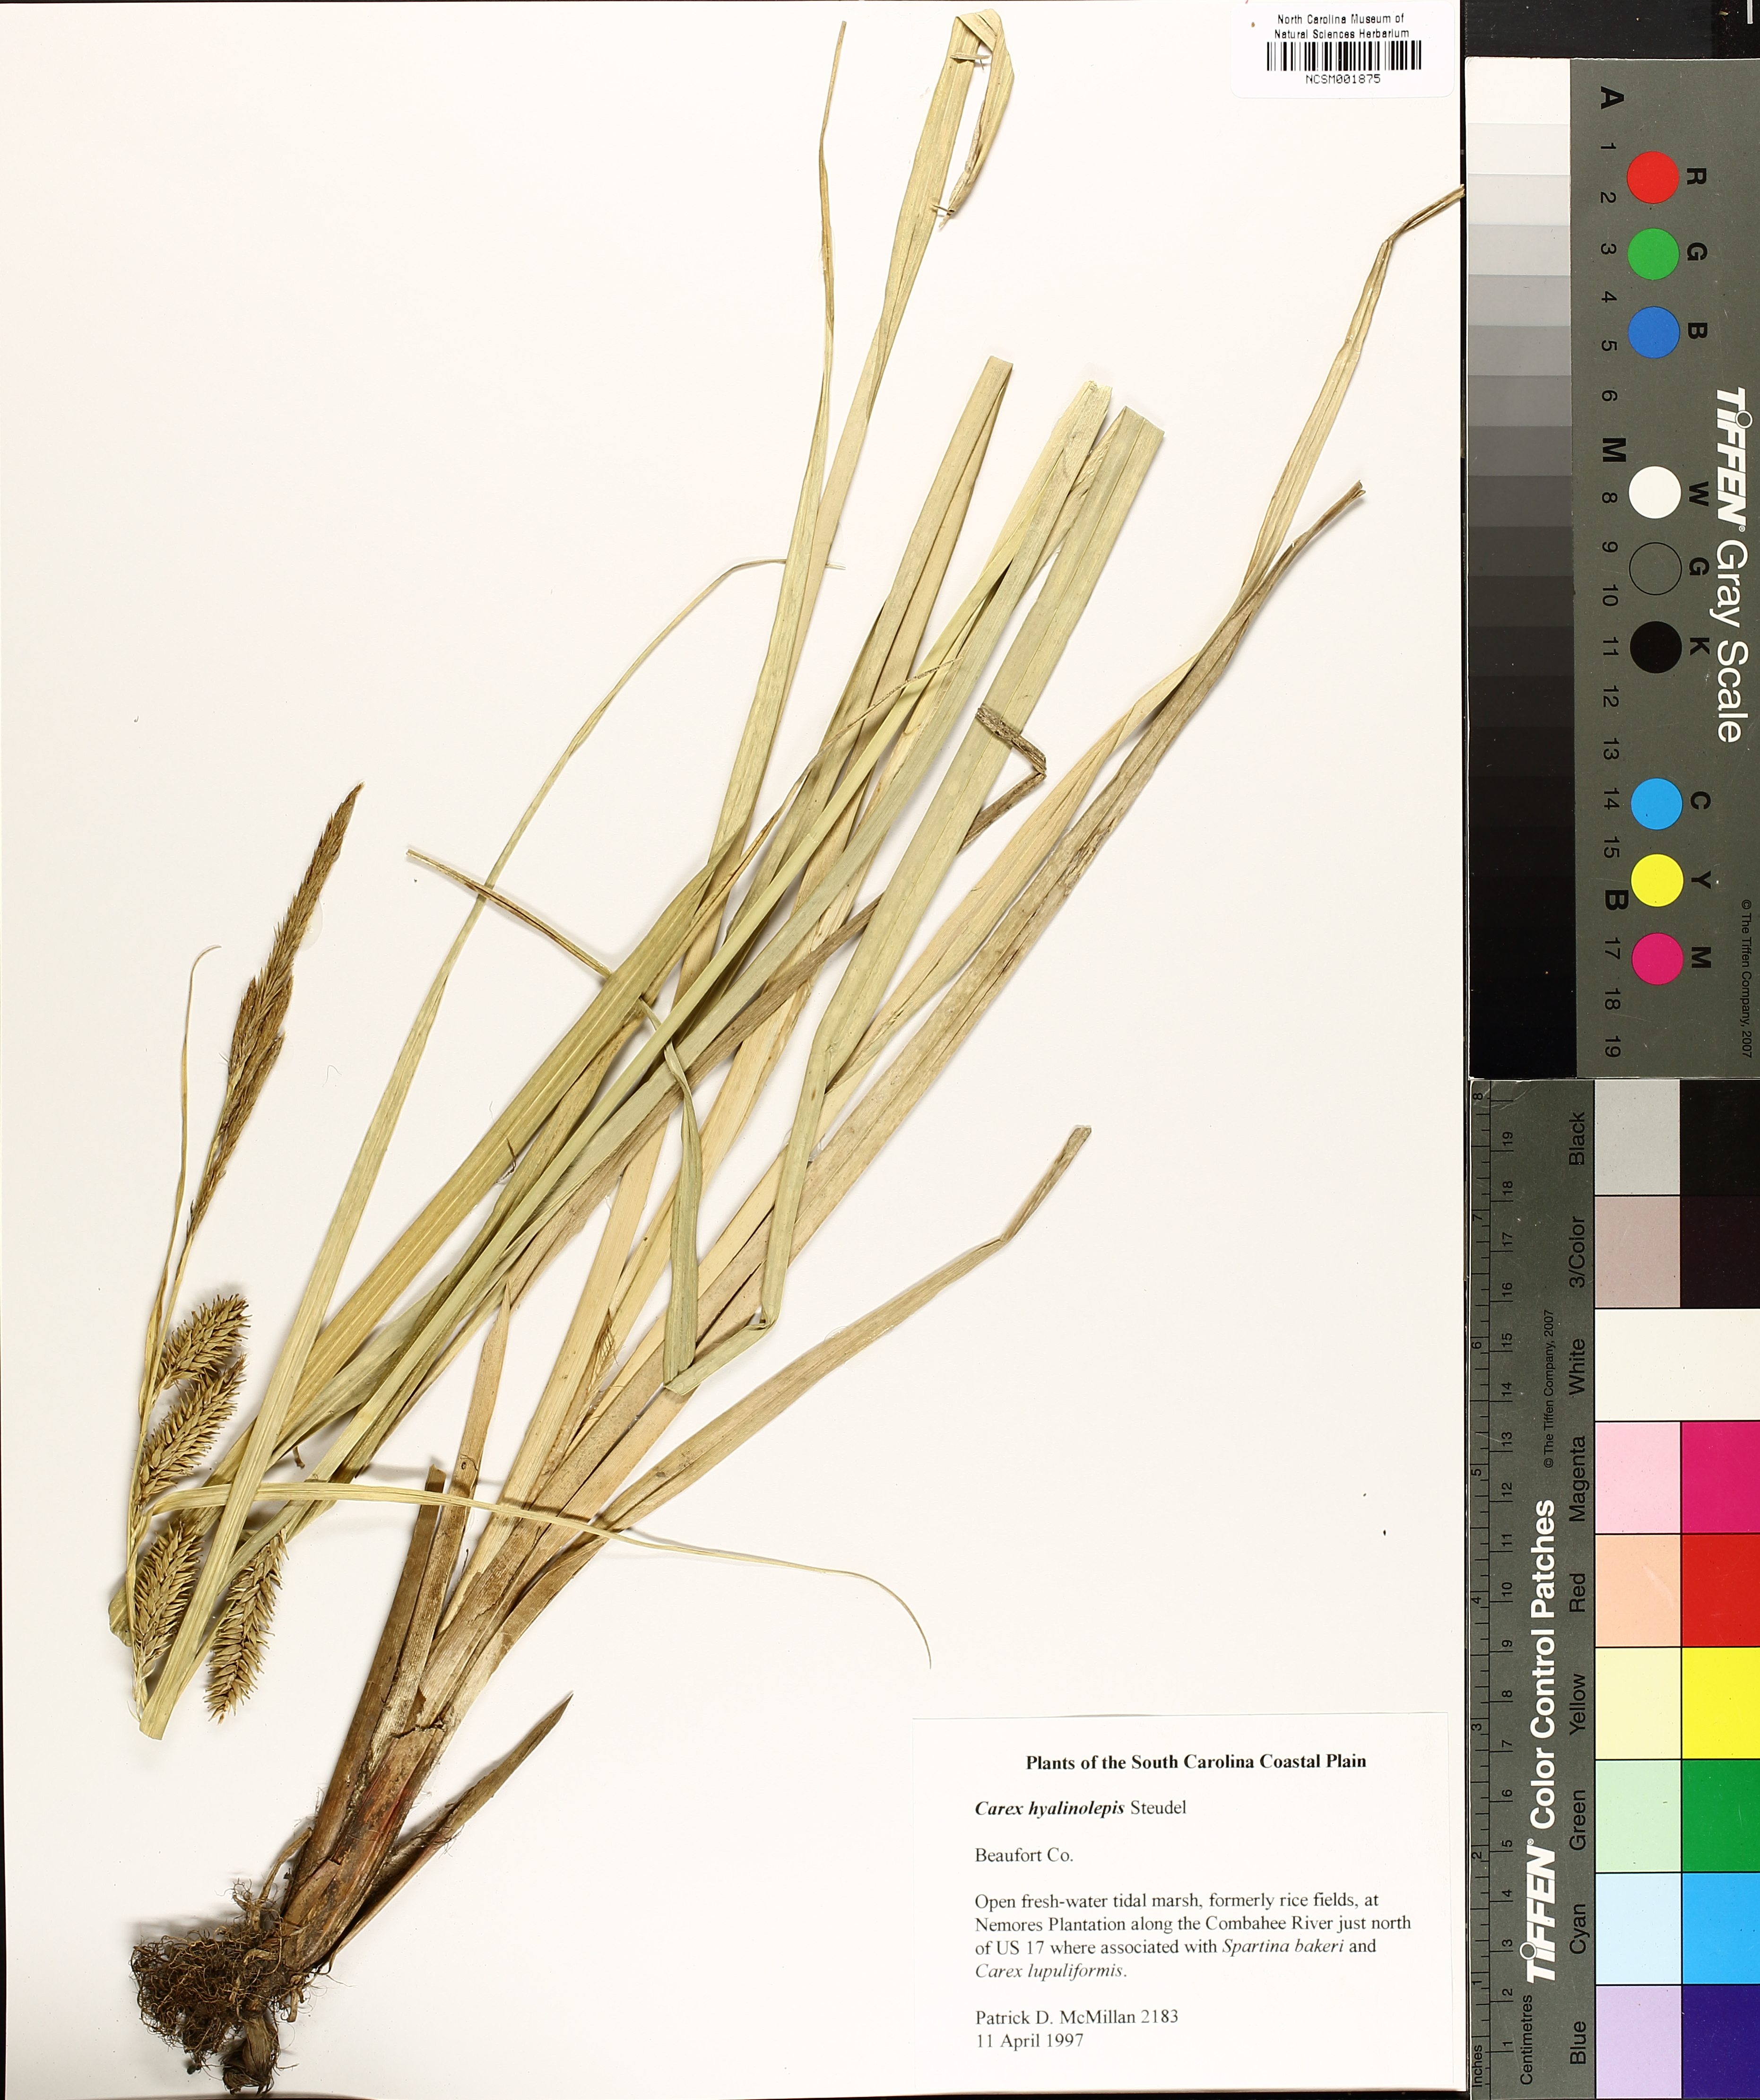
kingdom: Plantae
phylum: Tracheophyta
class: Liliopsida
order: Poales
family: Cyperaceae
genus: Carex
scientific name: Carex hyalinolepis
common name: Shoreline sedge
